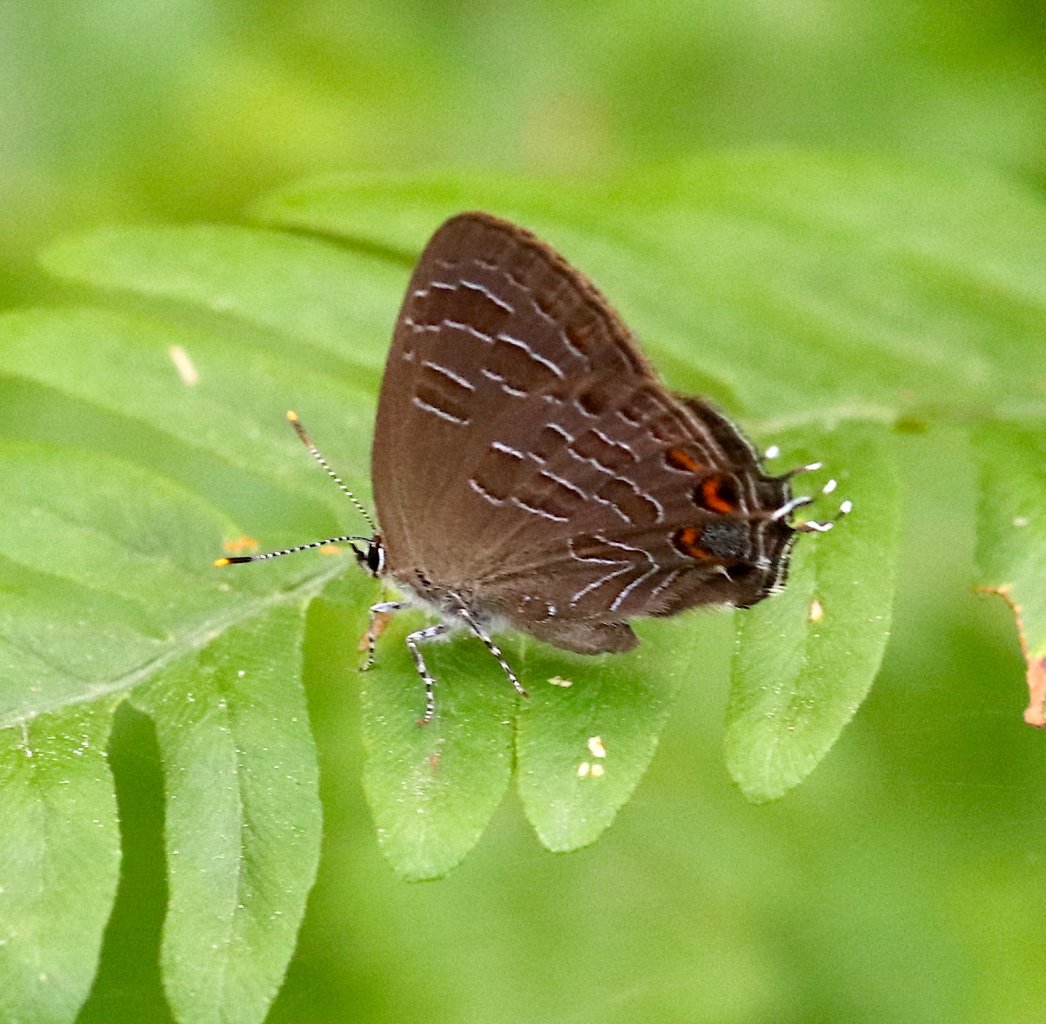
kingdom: Animalia
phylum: Arthropoda
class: Insecta
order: Lepidoptera
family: Lycaenidae
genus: Satyrium
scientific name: Satyrium liparops
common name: Striped Hairstreak
